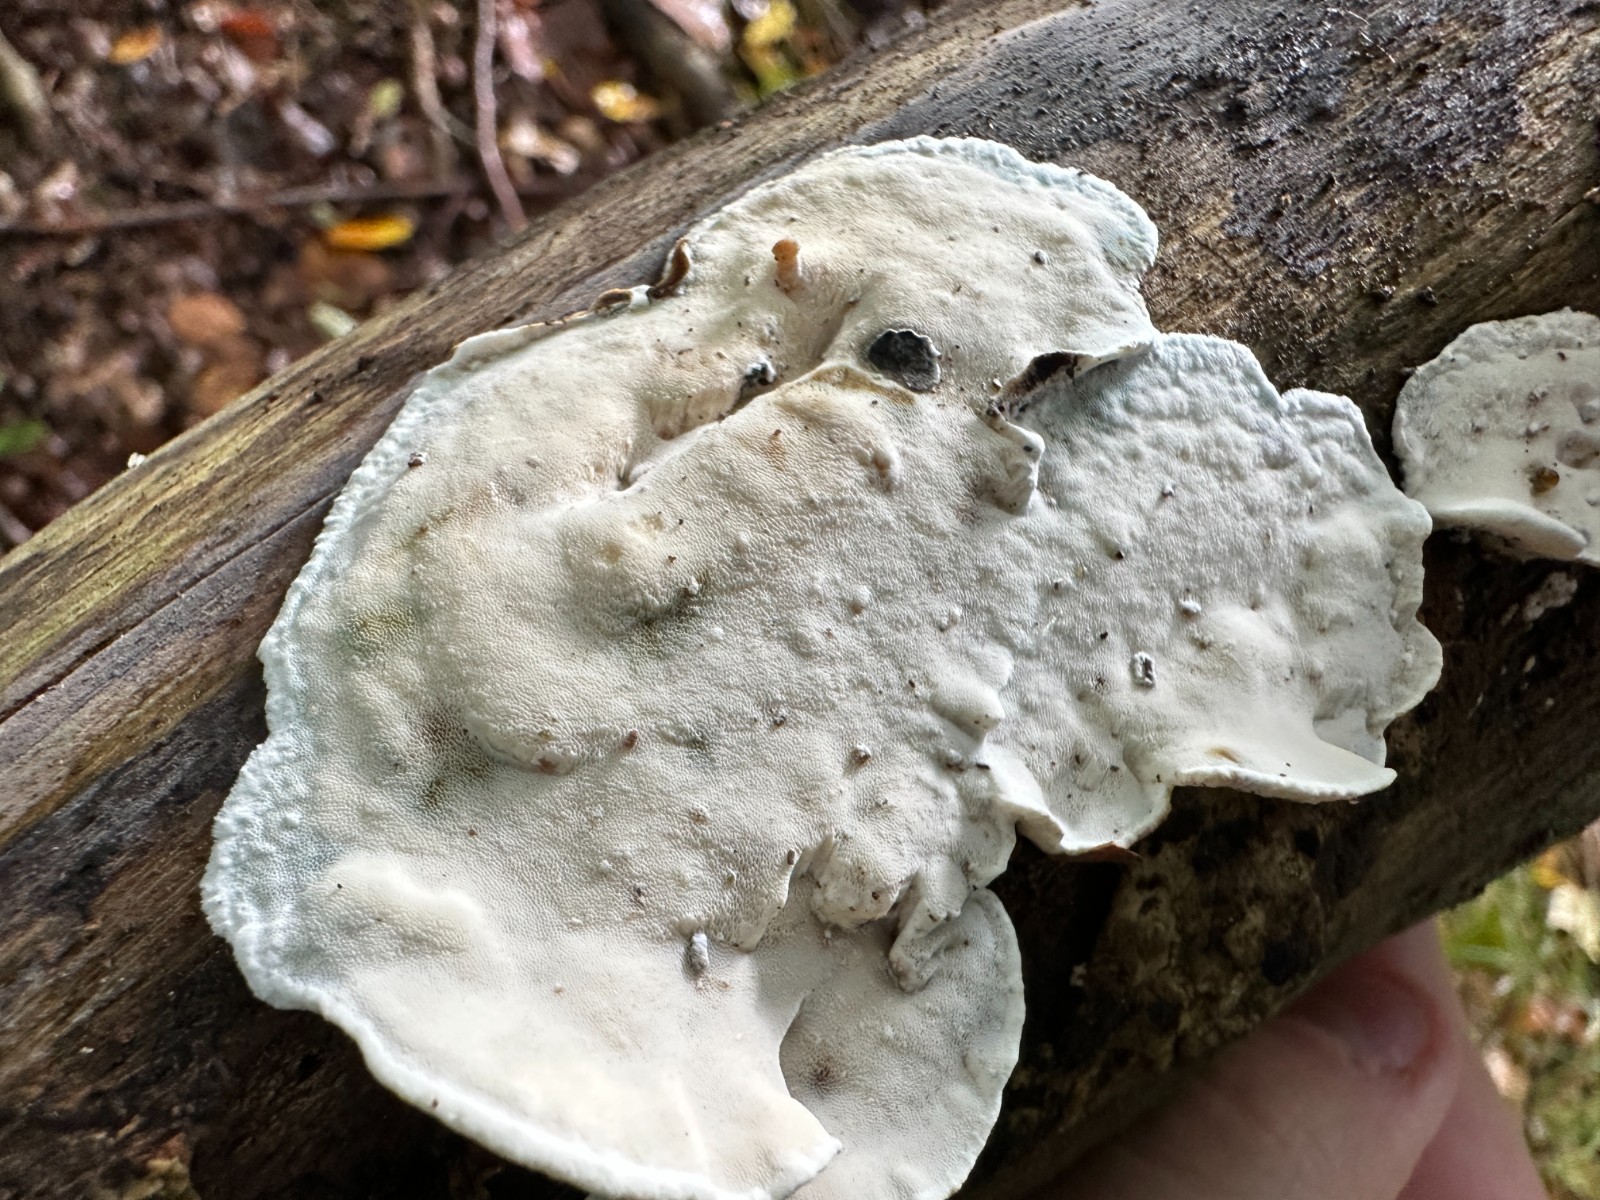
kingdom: Fungi
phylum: Basidiomycota
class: Agaricomycetes
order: Polyporales
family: Incrustoporiaceae
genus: Skeletocutis
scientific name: Skeletocutis nemoralis
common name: stor krystalporesvamp
